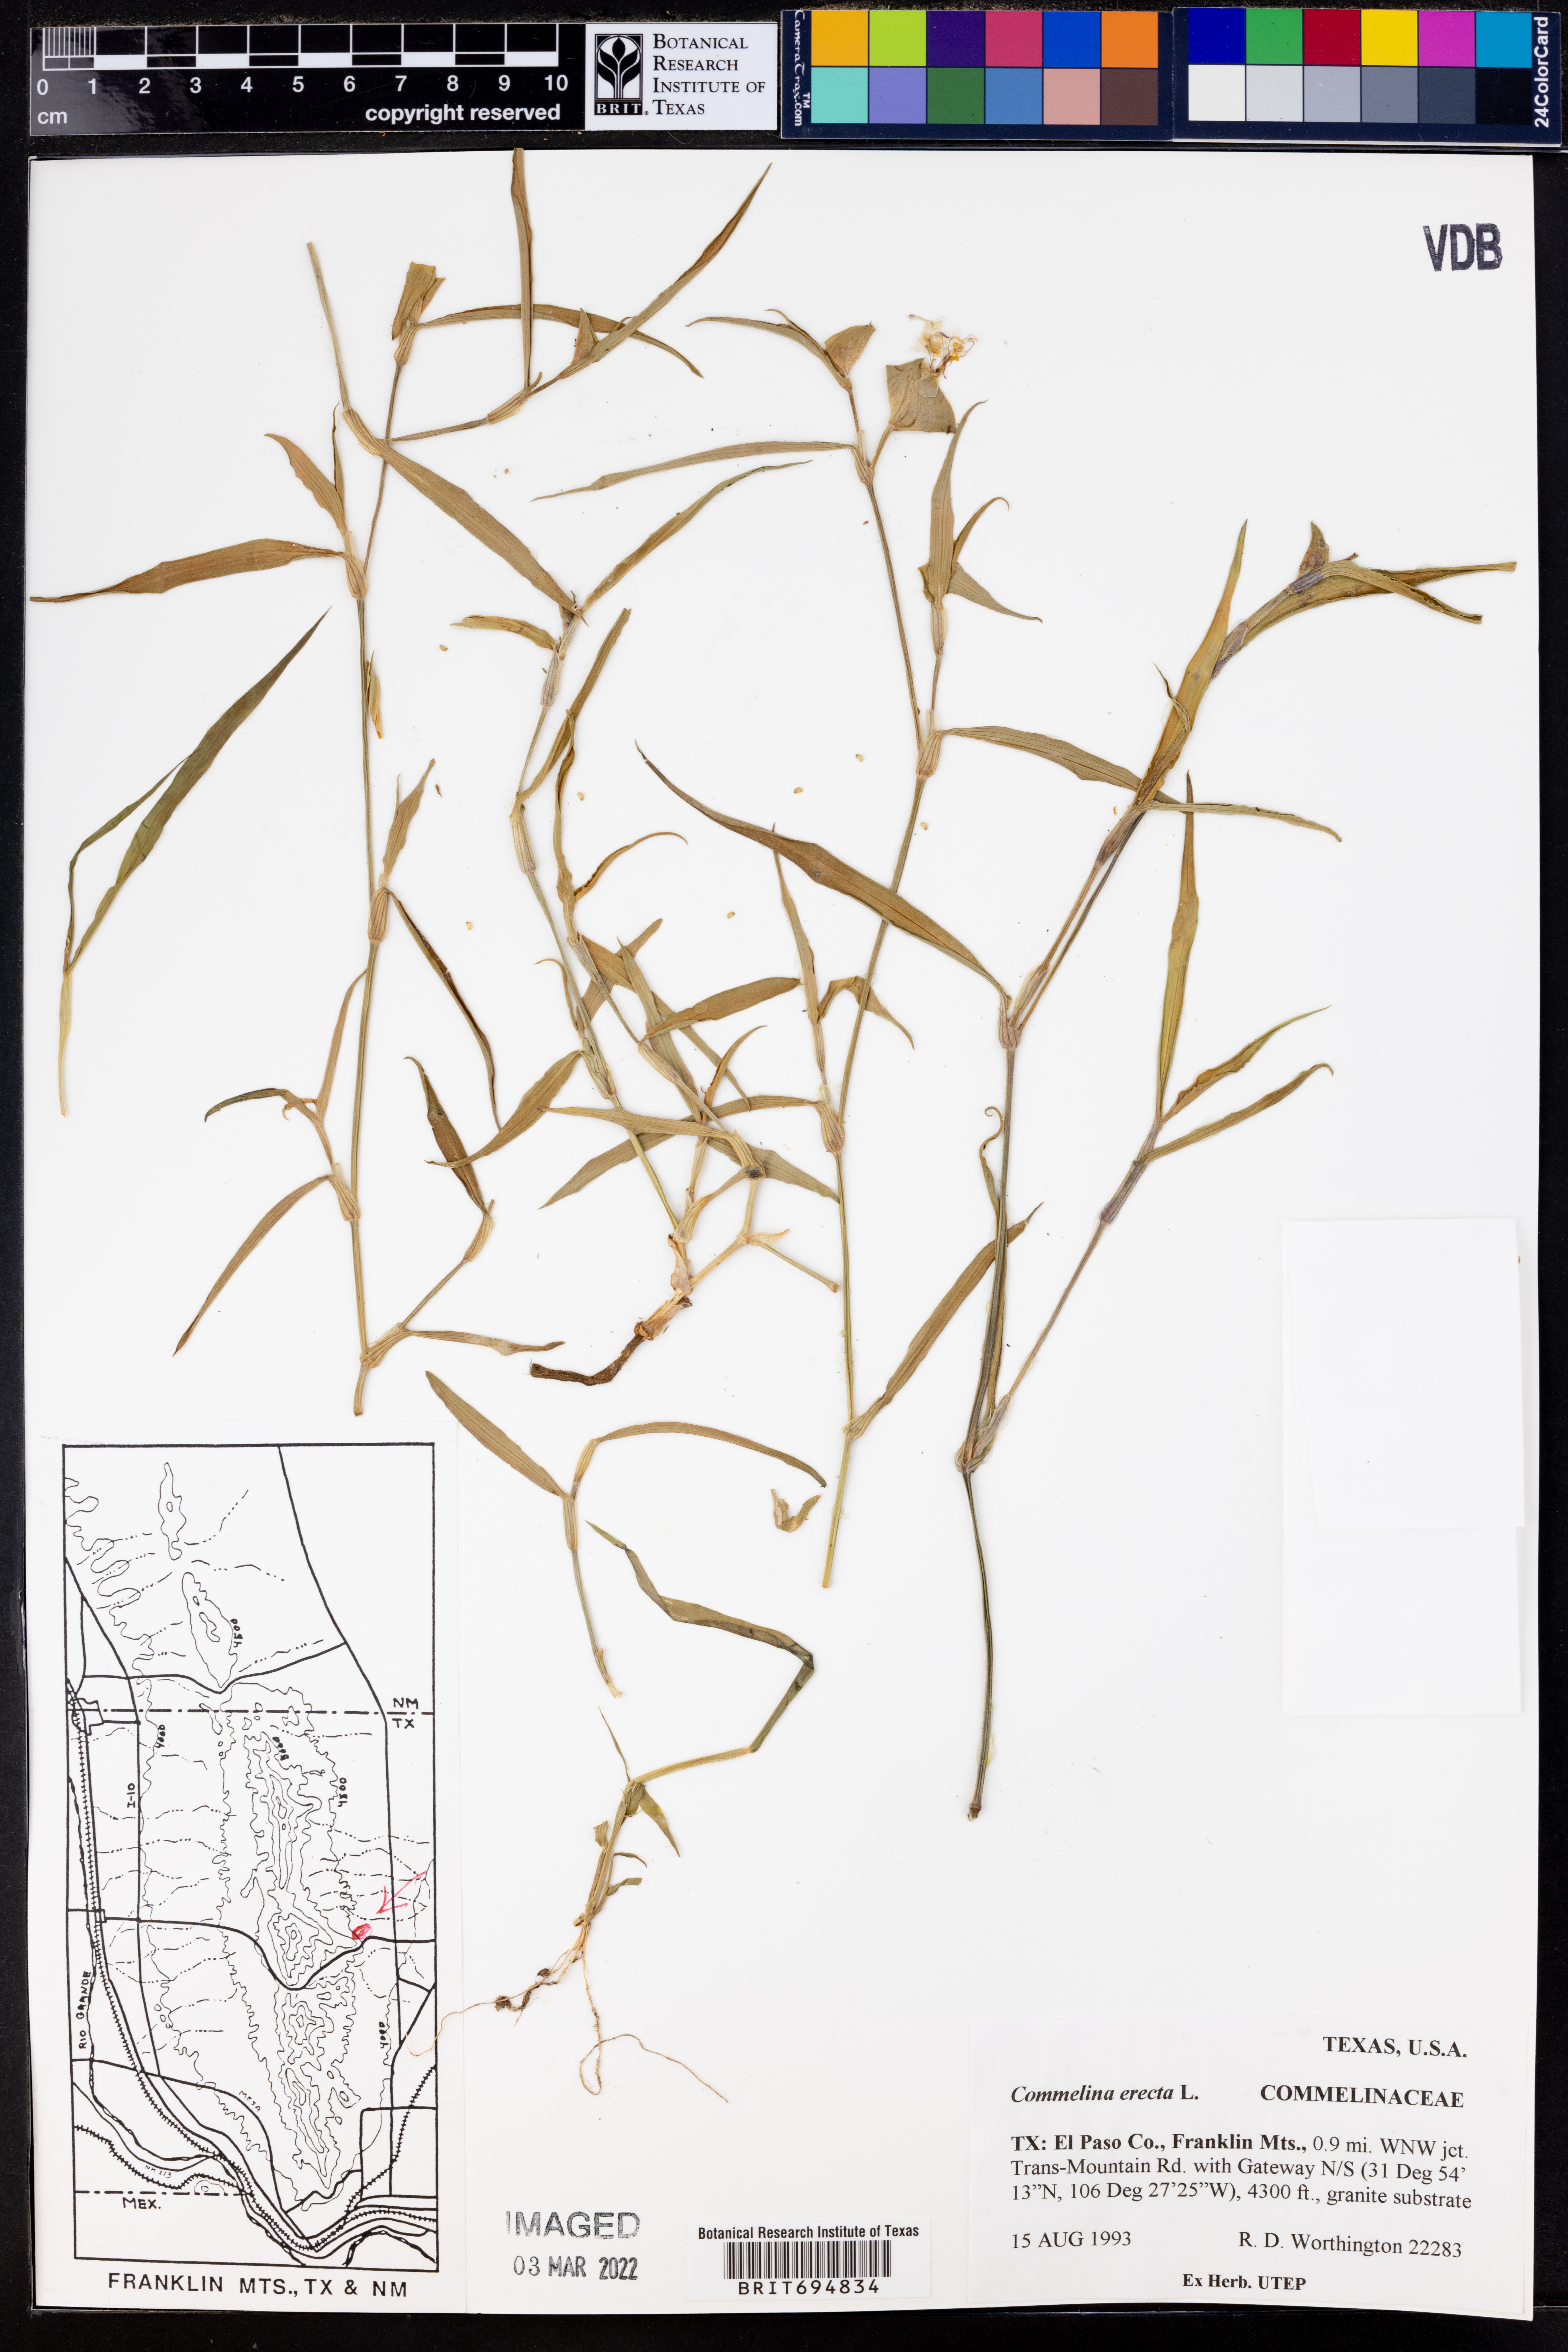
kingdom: Plantae
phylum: Tracheophyta
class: Liliopsida
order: Commelinales
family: Commelinaceae
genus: Commelina
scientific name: Commelina erecta
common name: Blousel blommetjie
